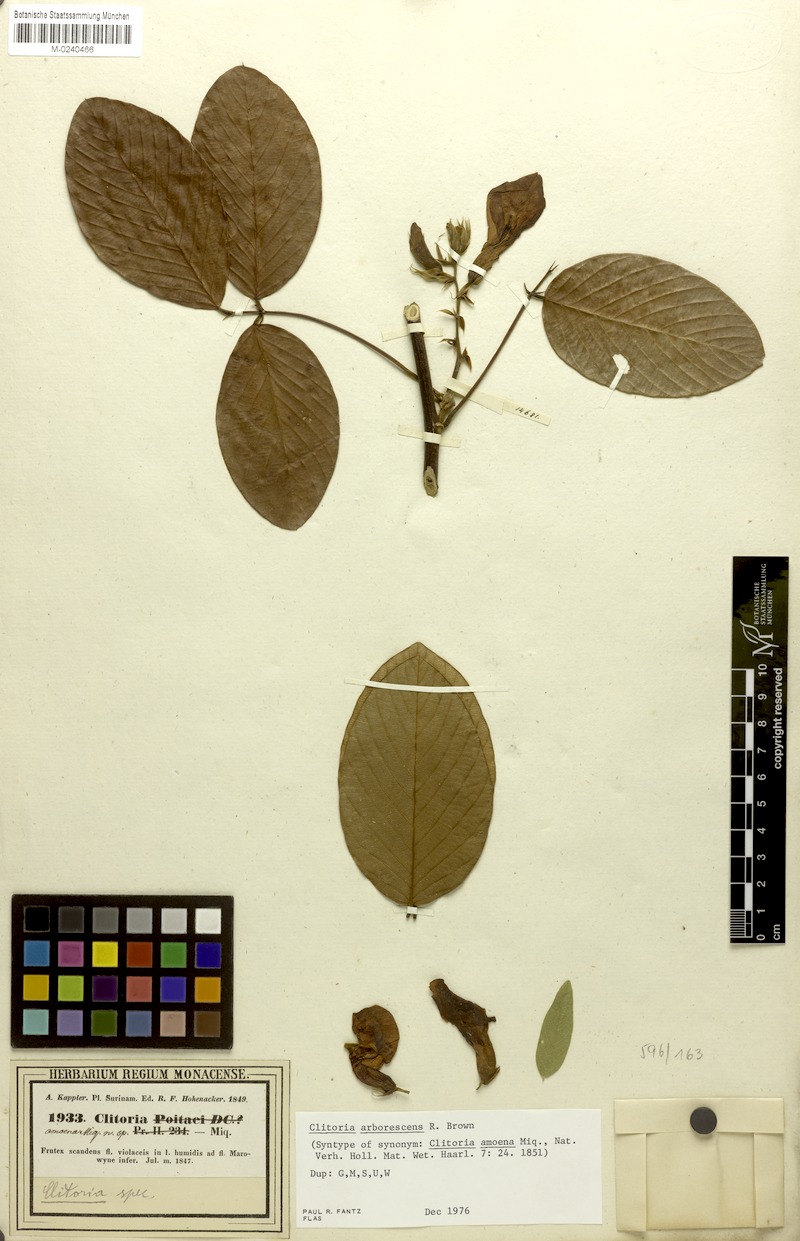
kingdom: Plantae
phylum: Tracheophyta
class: Magnoliopsida
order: Fabales
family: Fabaceae
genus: Clitoria
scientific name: Clitoria arborescens
